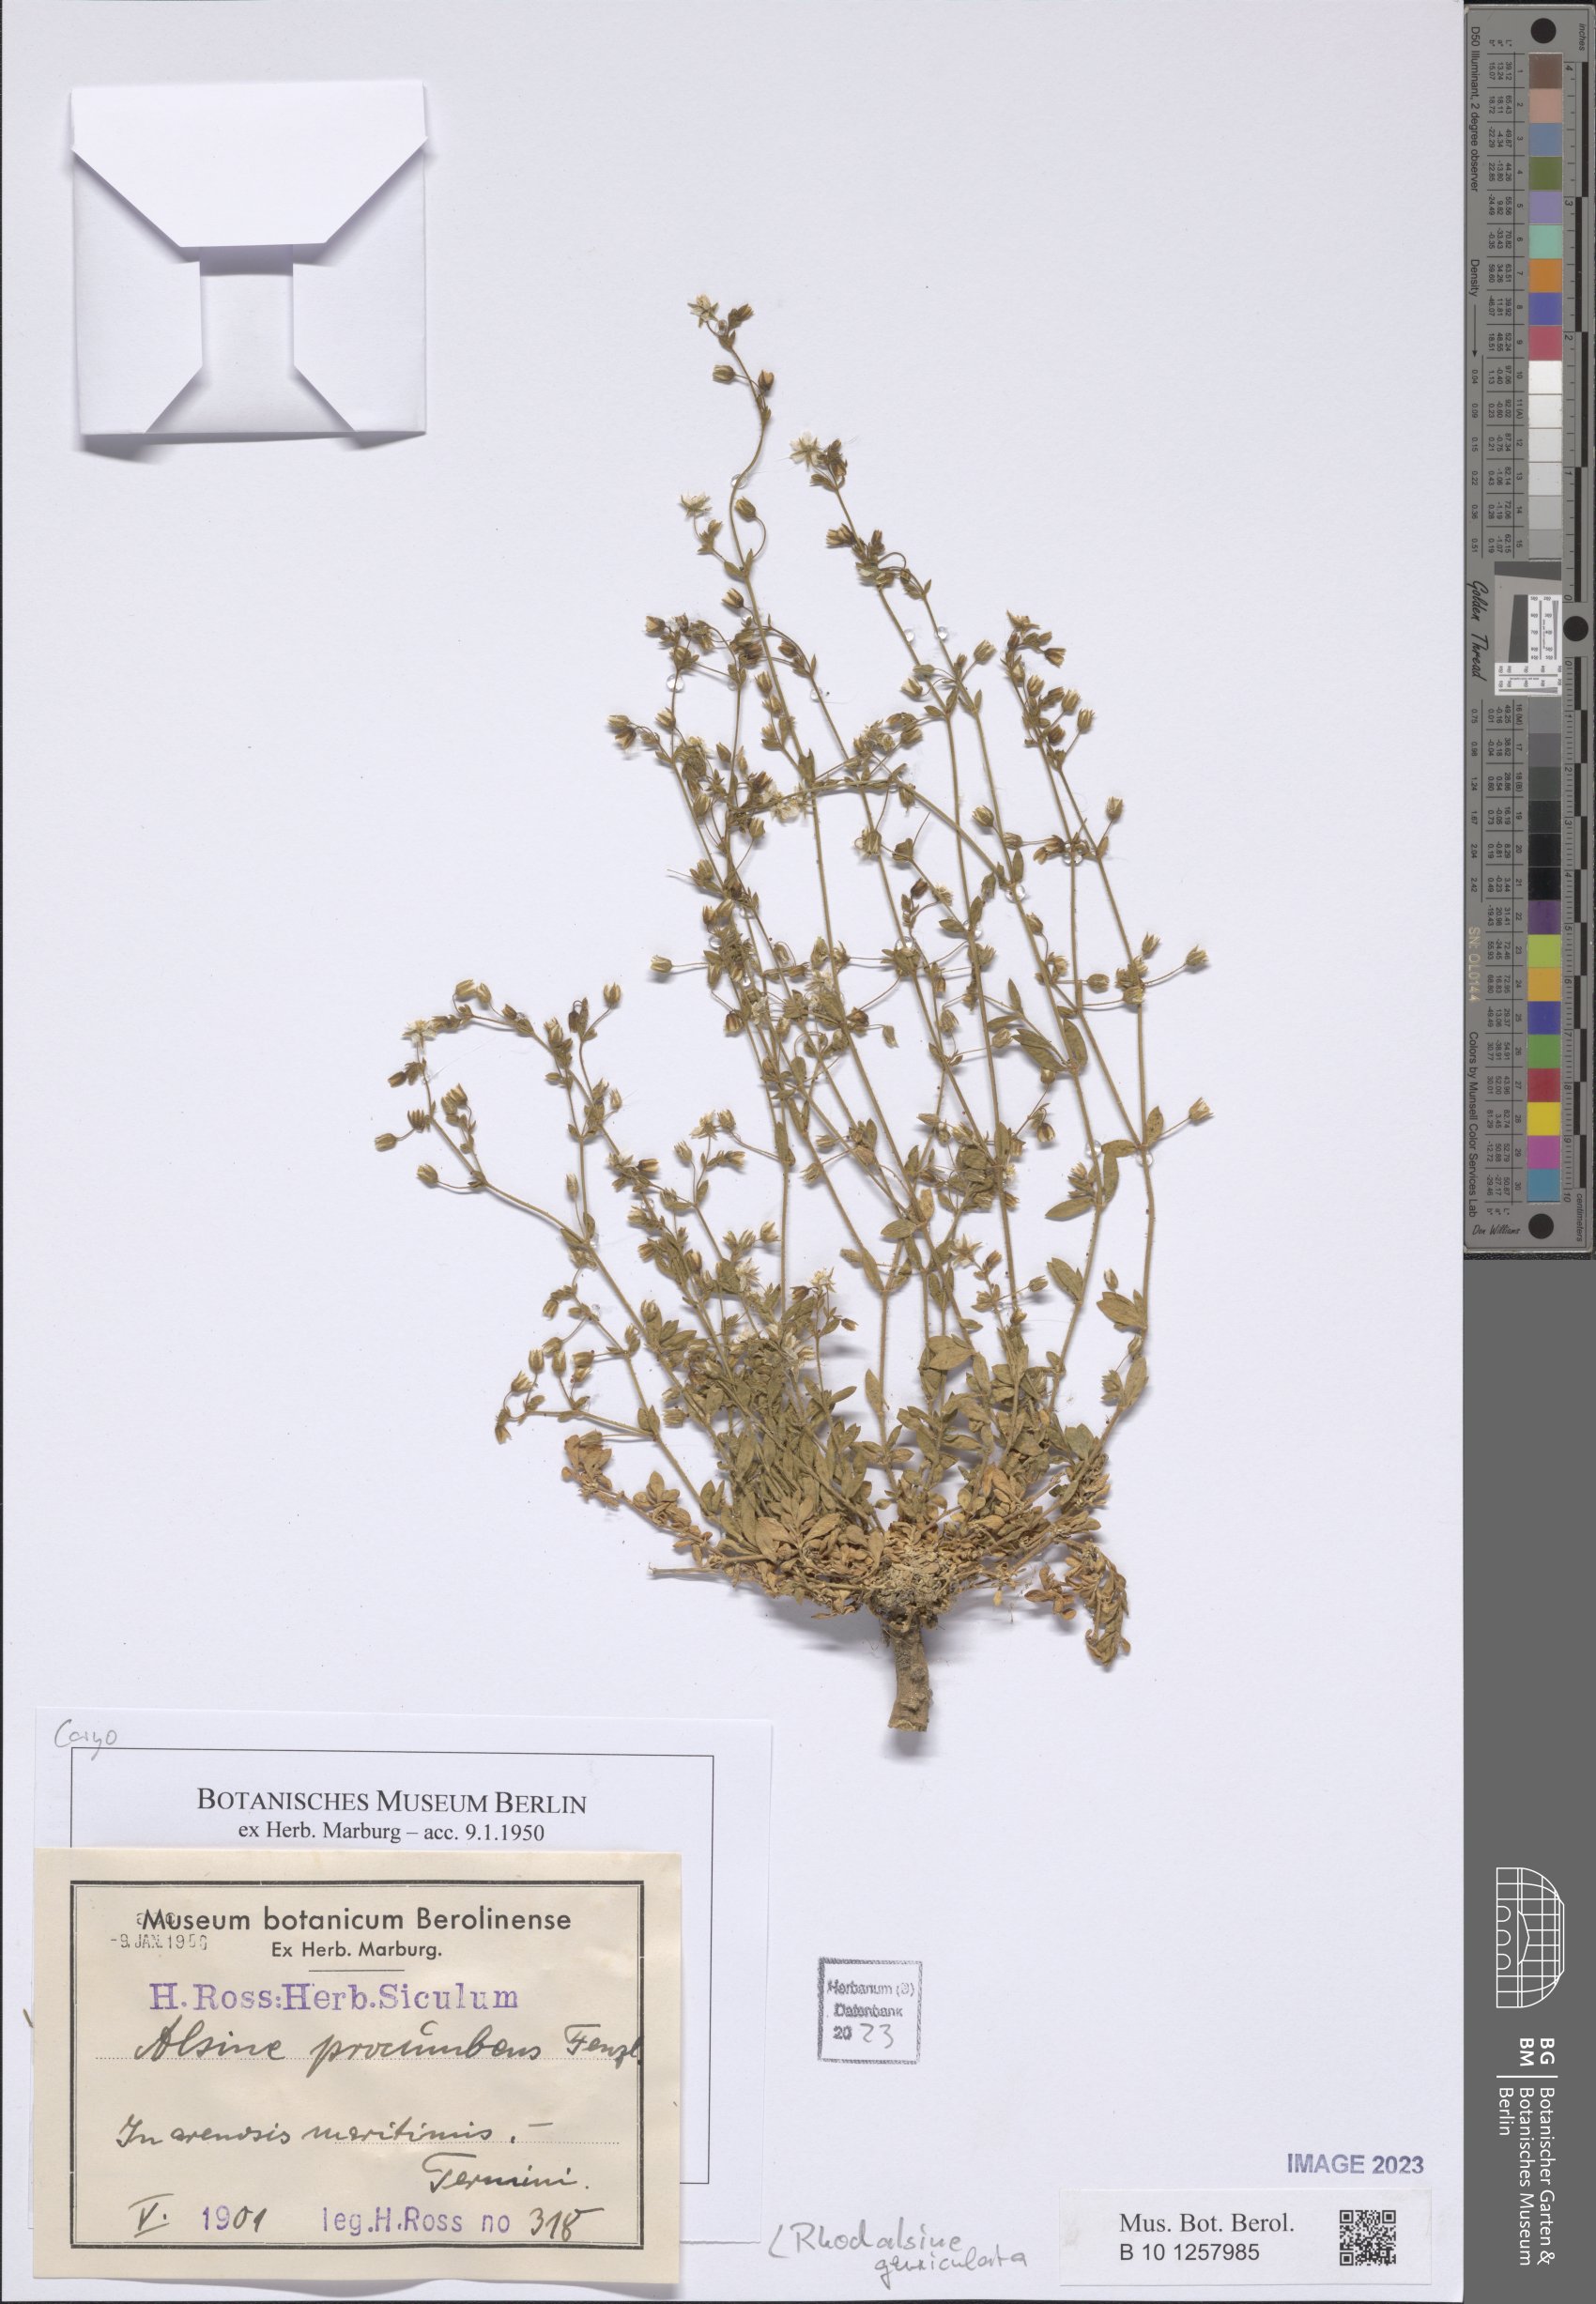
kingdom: Plantae
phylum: Tracheophyta
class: Magnoliopsida
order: Caryophyllales
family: Caryophyllaceae
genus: Rhodalsine
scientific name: Rhodalsine geniculata
